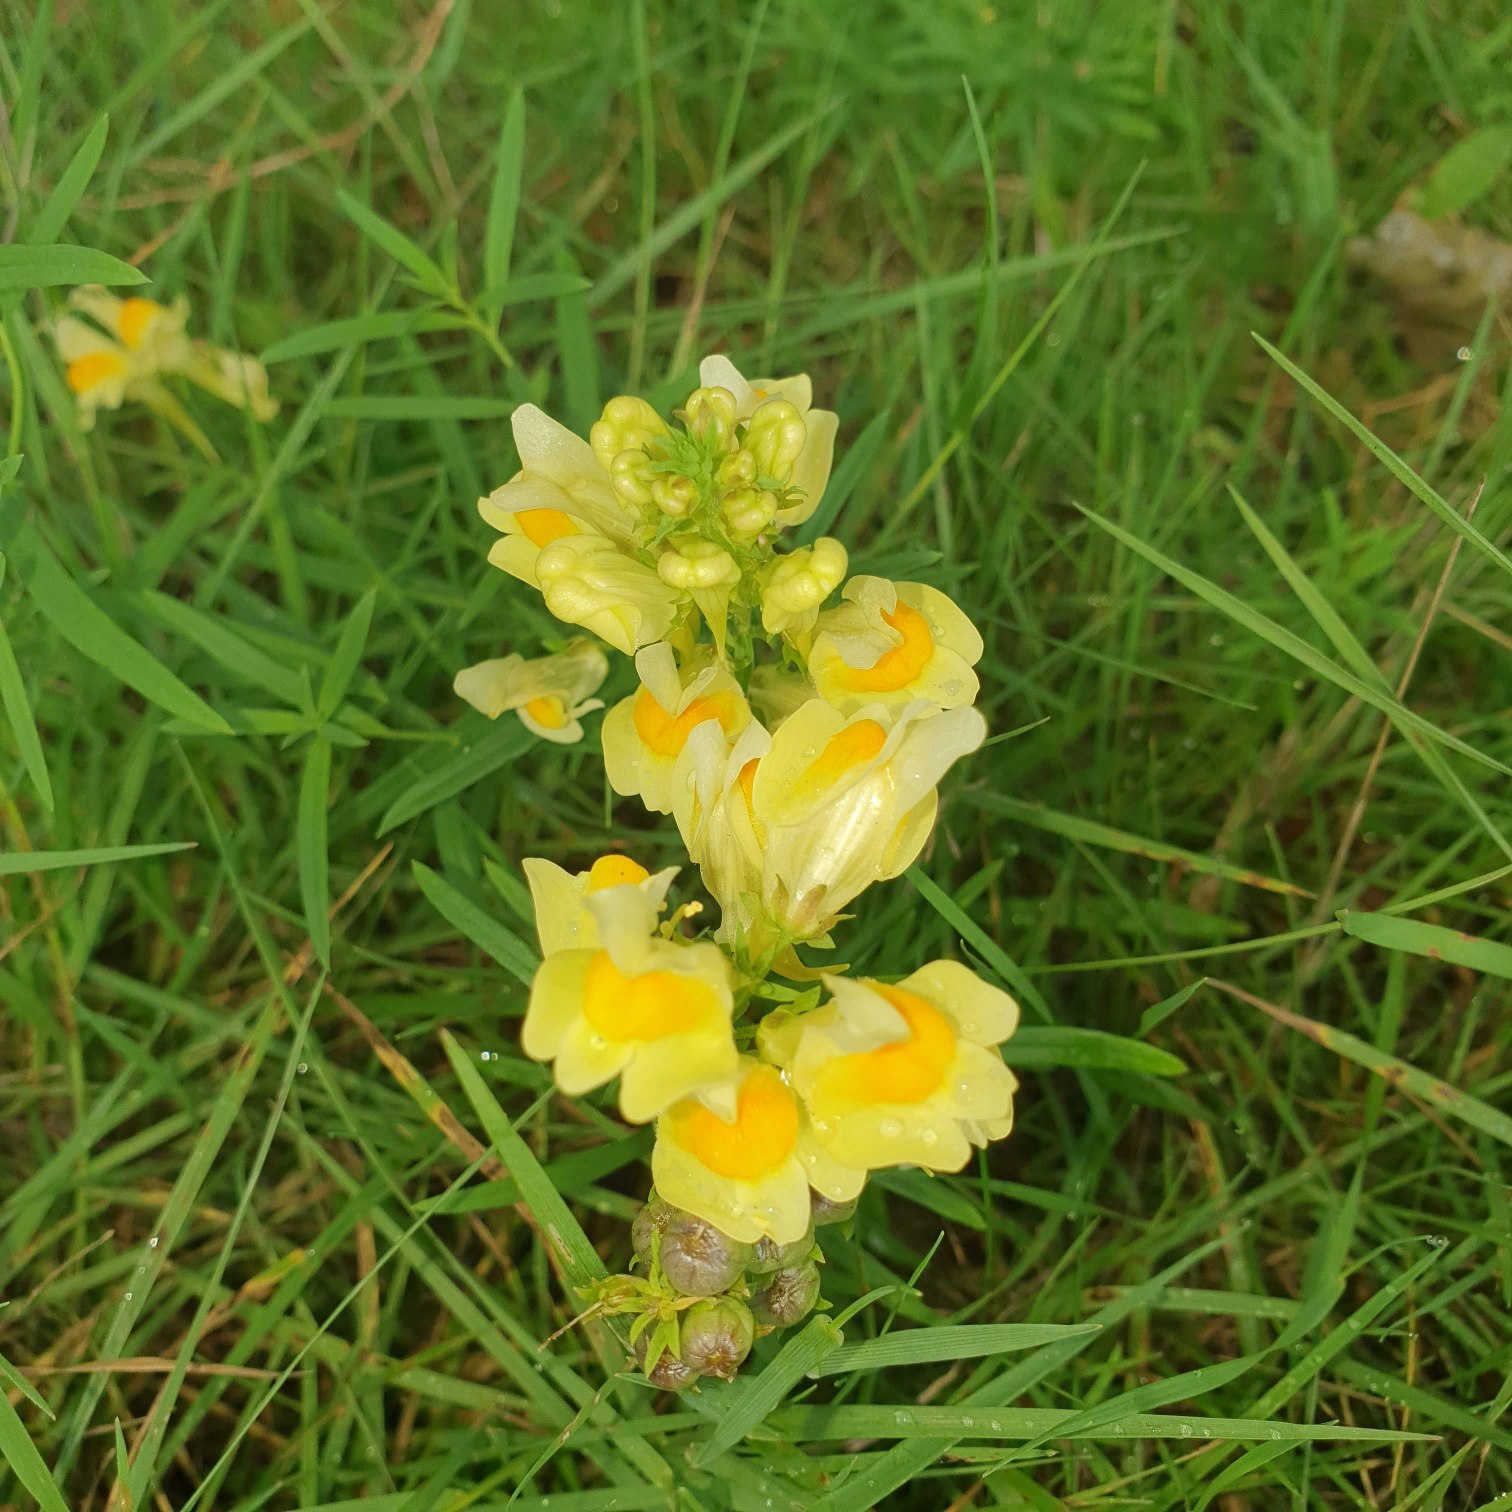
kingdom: Plantae
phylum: Tracheophyta
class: Magnoliopsida
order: Lamiales
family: Plantaginaceae
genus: Linaria
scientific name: Linaria vulgaris
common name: Almindelig torskemund
